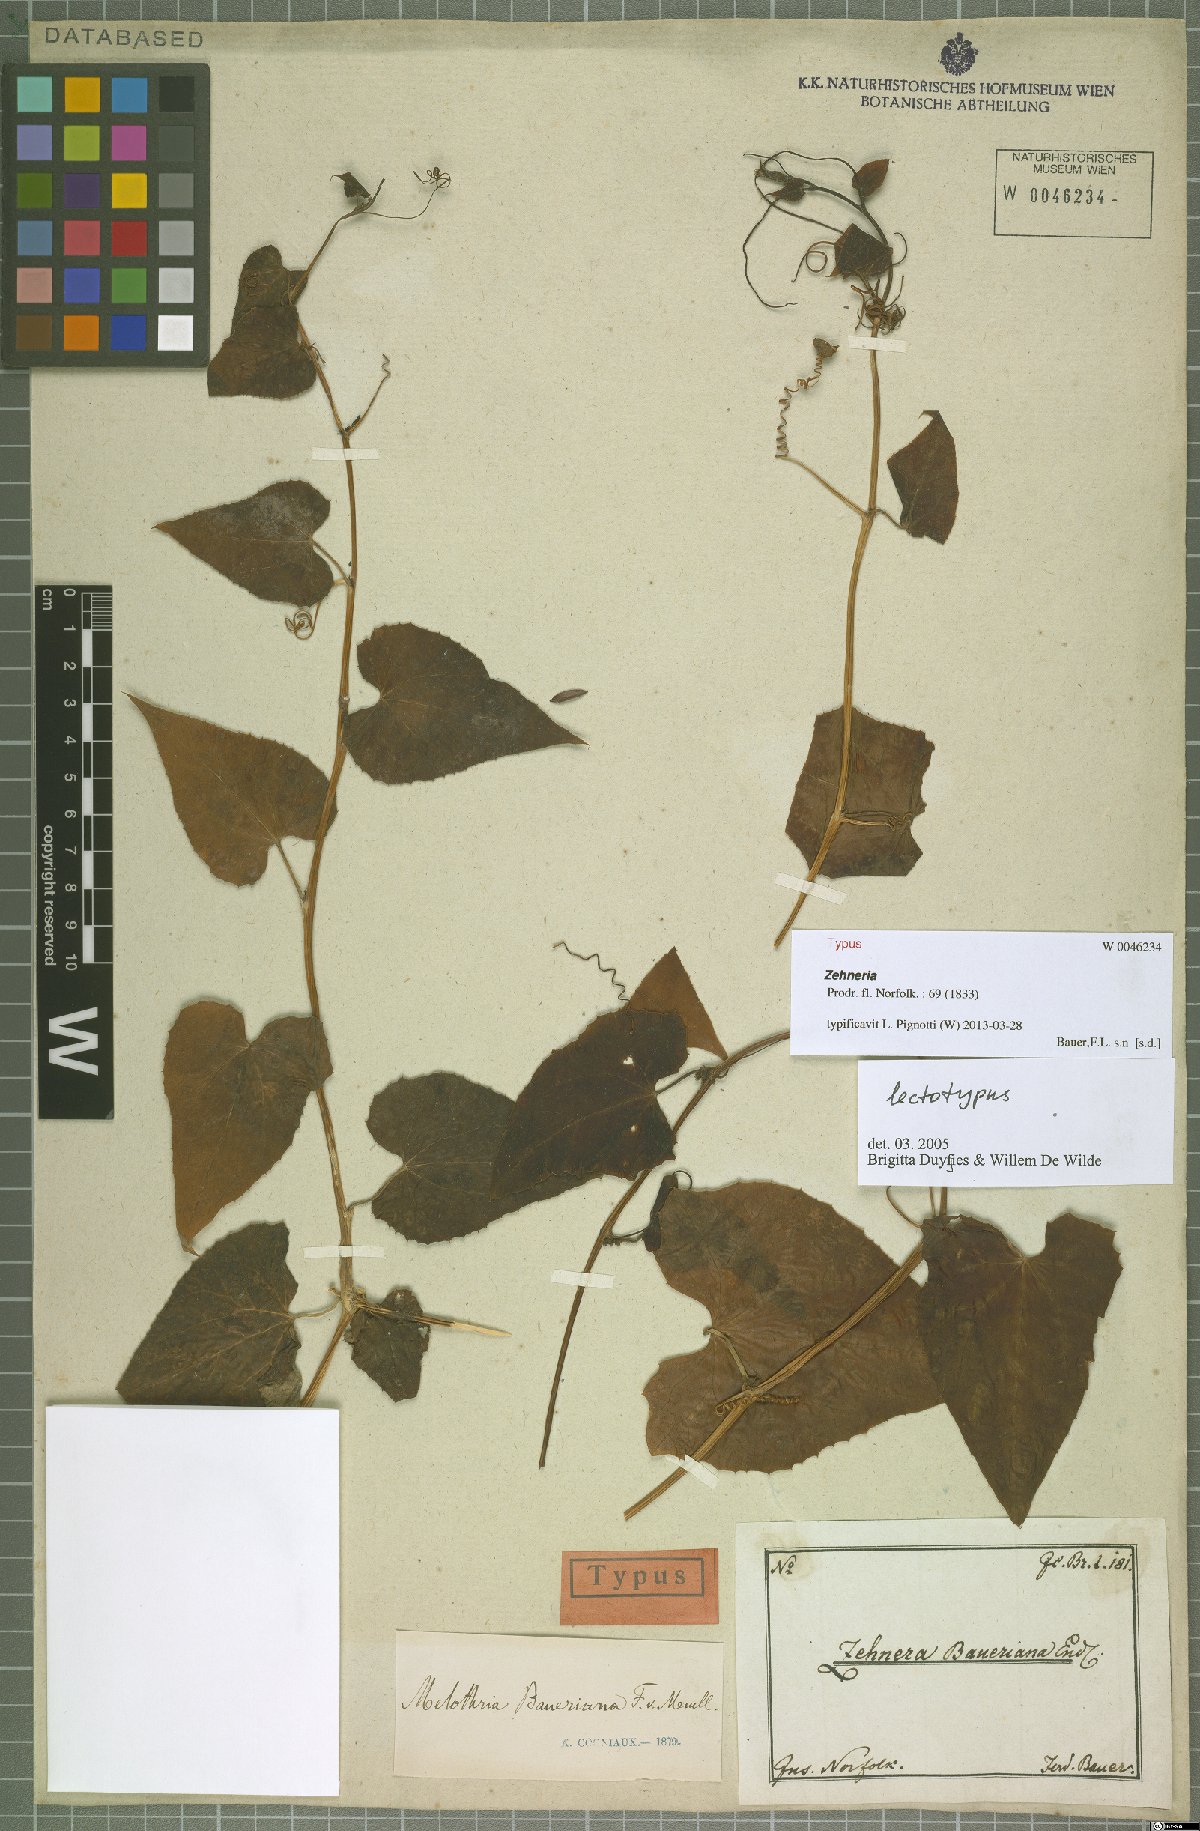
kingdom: Plantae
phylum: Tracheophyta
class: Magnoliopsida
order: Cucurbitales
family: Cucurbitaceae
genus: Zehneria
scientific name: Zehneria mucronata
